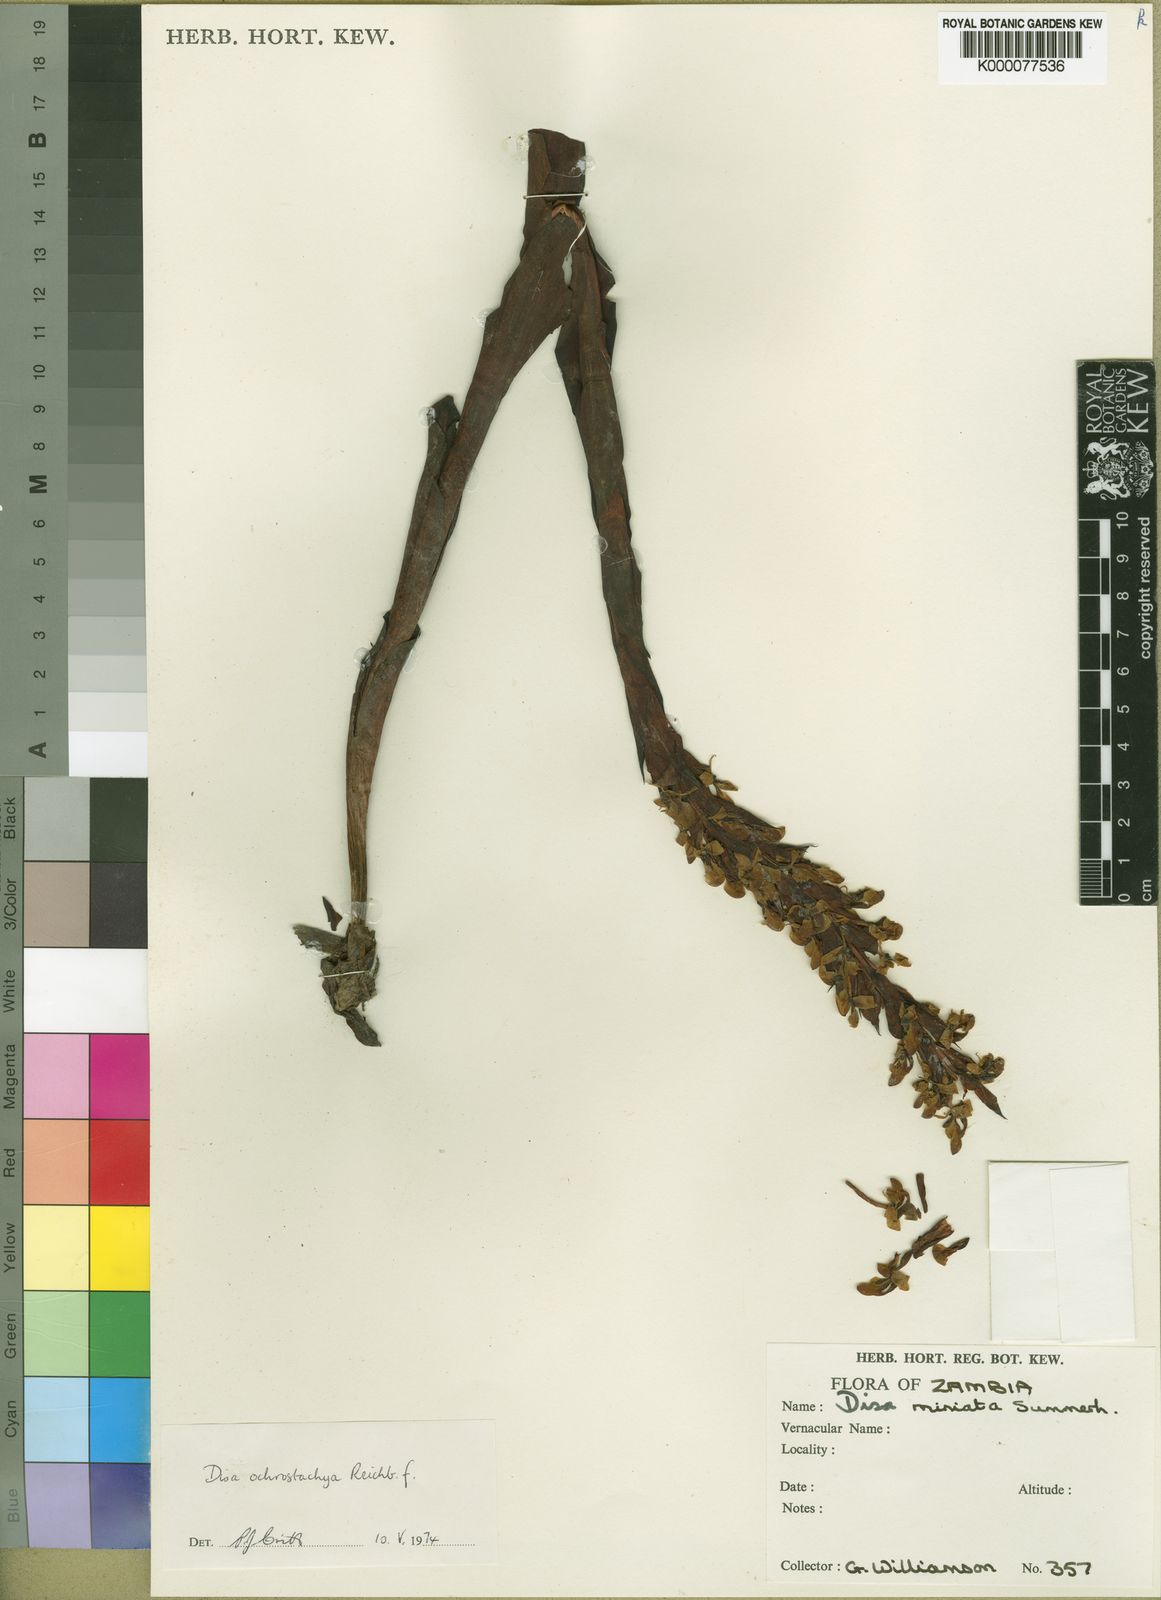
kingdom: Plantae
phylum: Tracheophyta
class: Liliopsida
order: Asparagales
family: Orchidaceae
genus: Disa
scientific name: Disa satyriopsis
